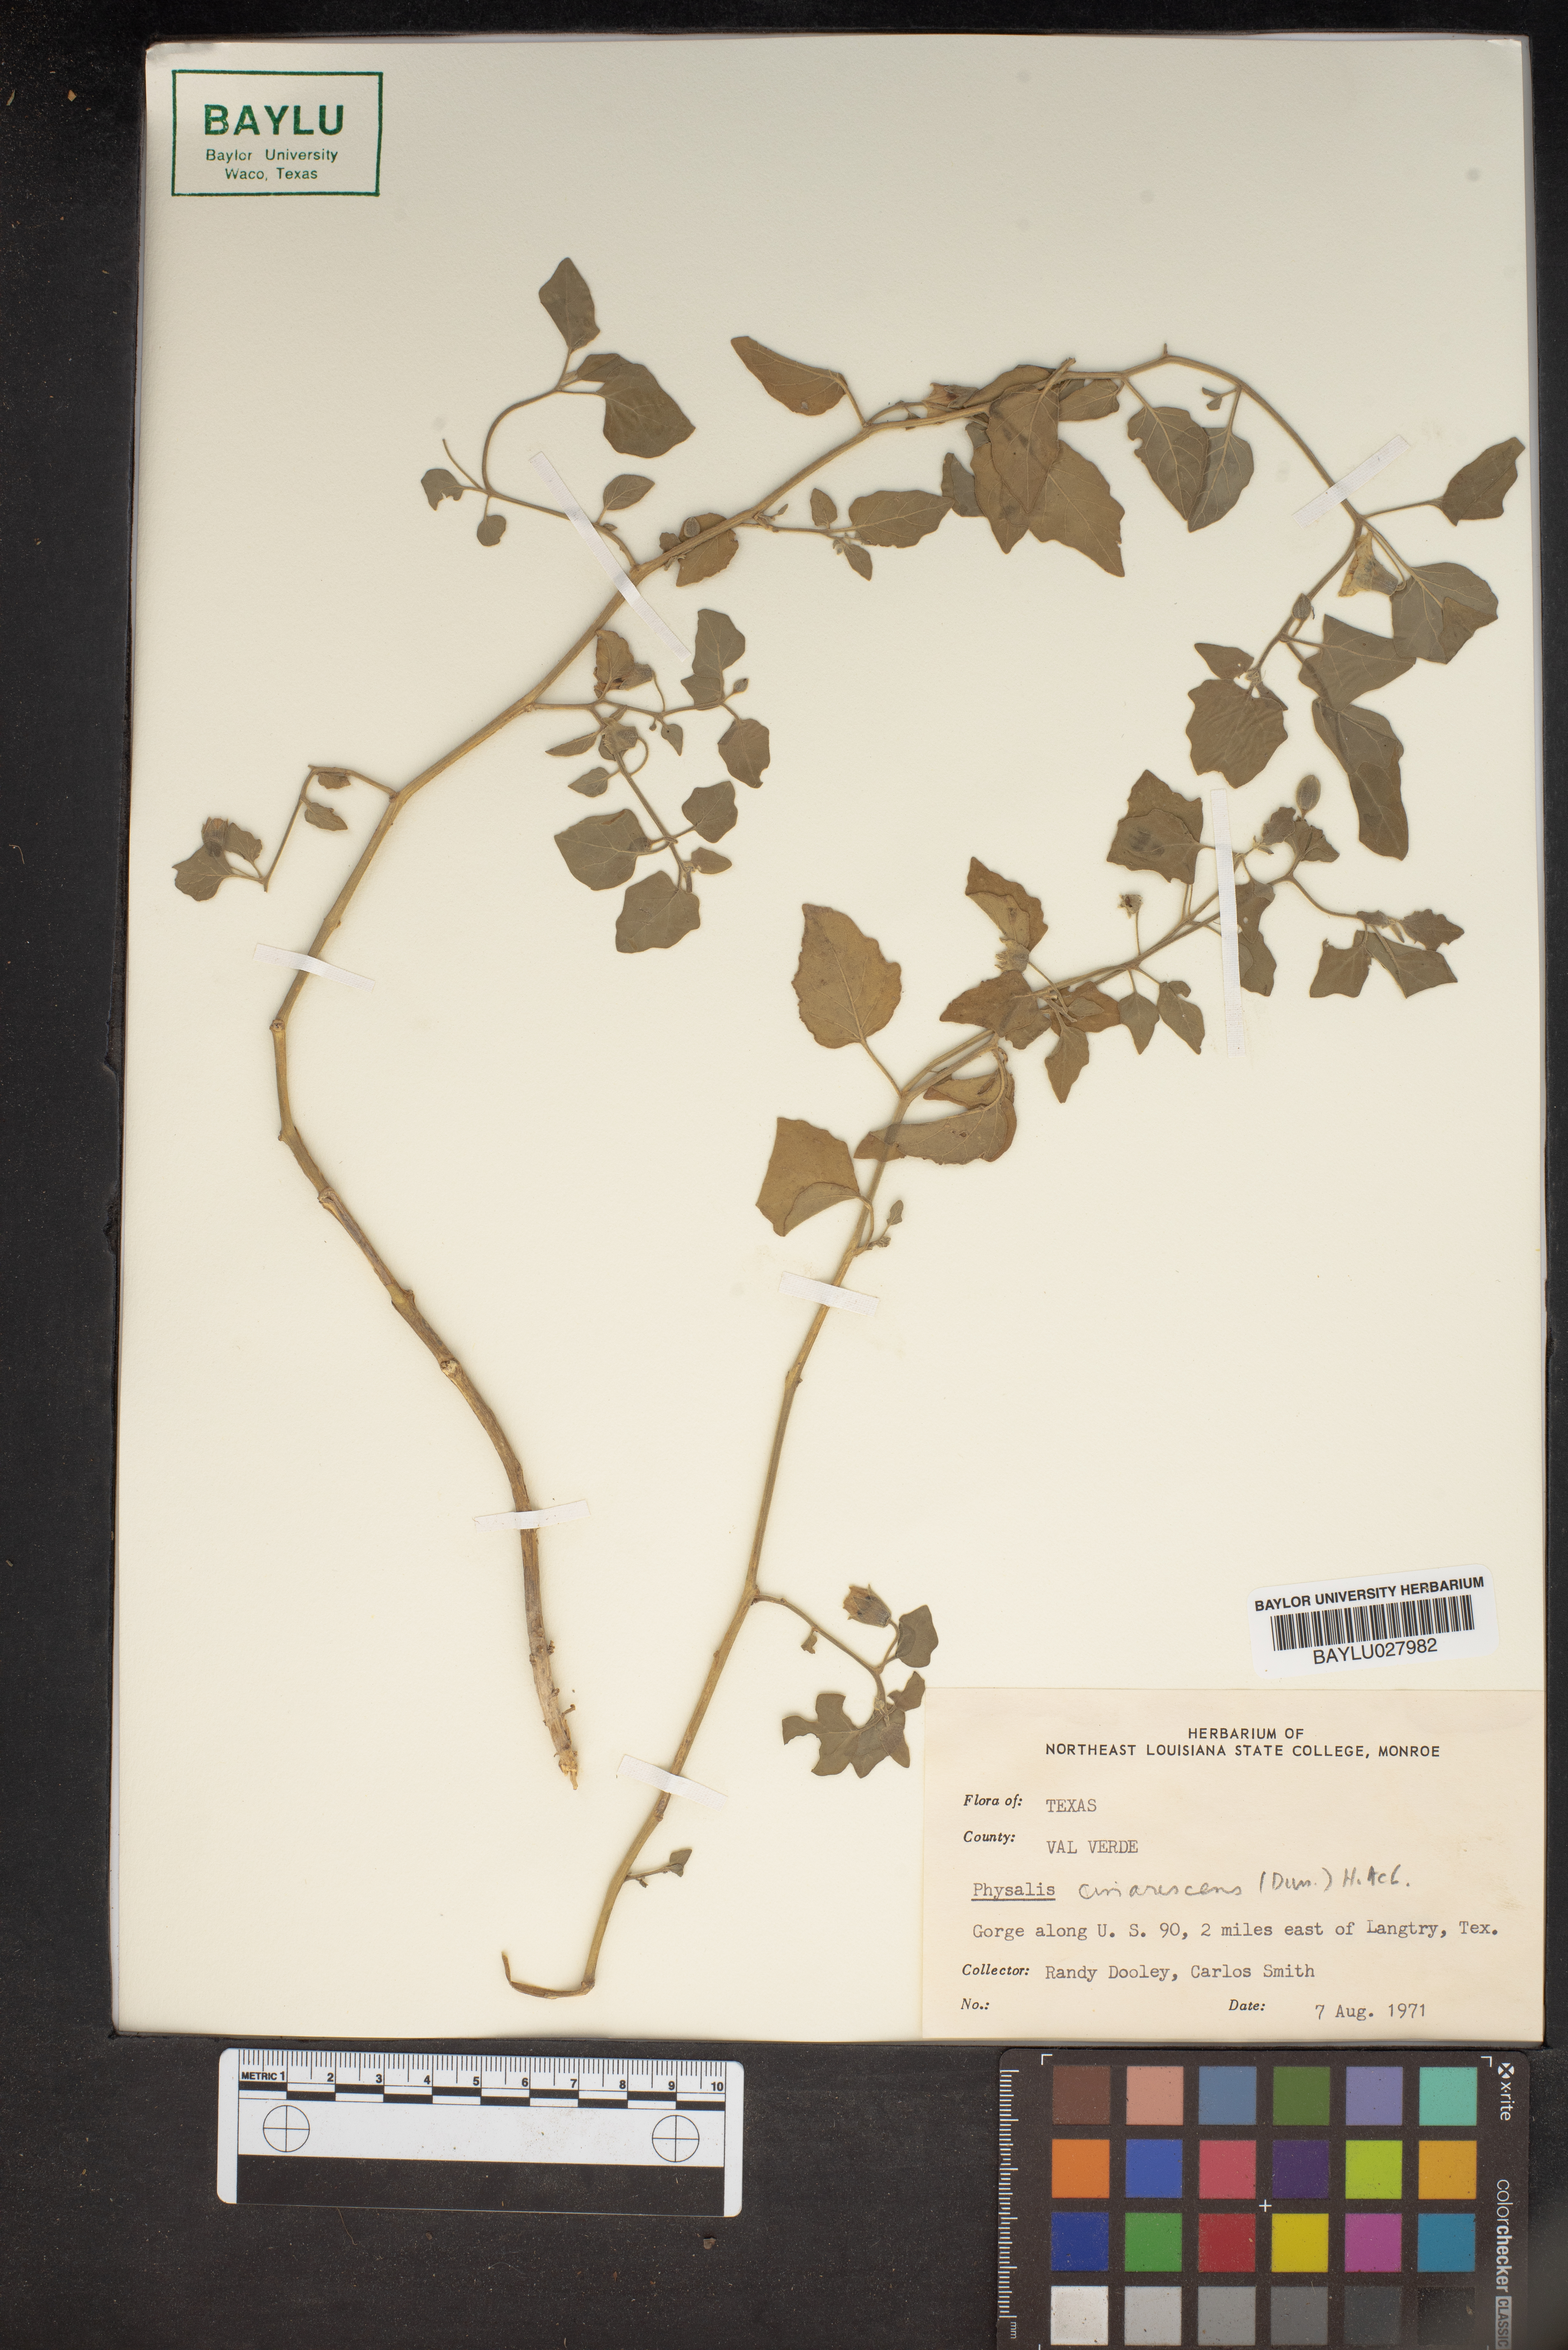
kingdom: Plantae
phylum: Tracheophyta
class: Magnoliopsida
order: Solanales
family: Solanaceae
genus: Physalis
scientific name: Physalis cinerascens
